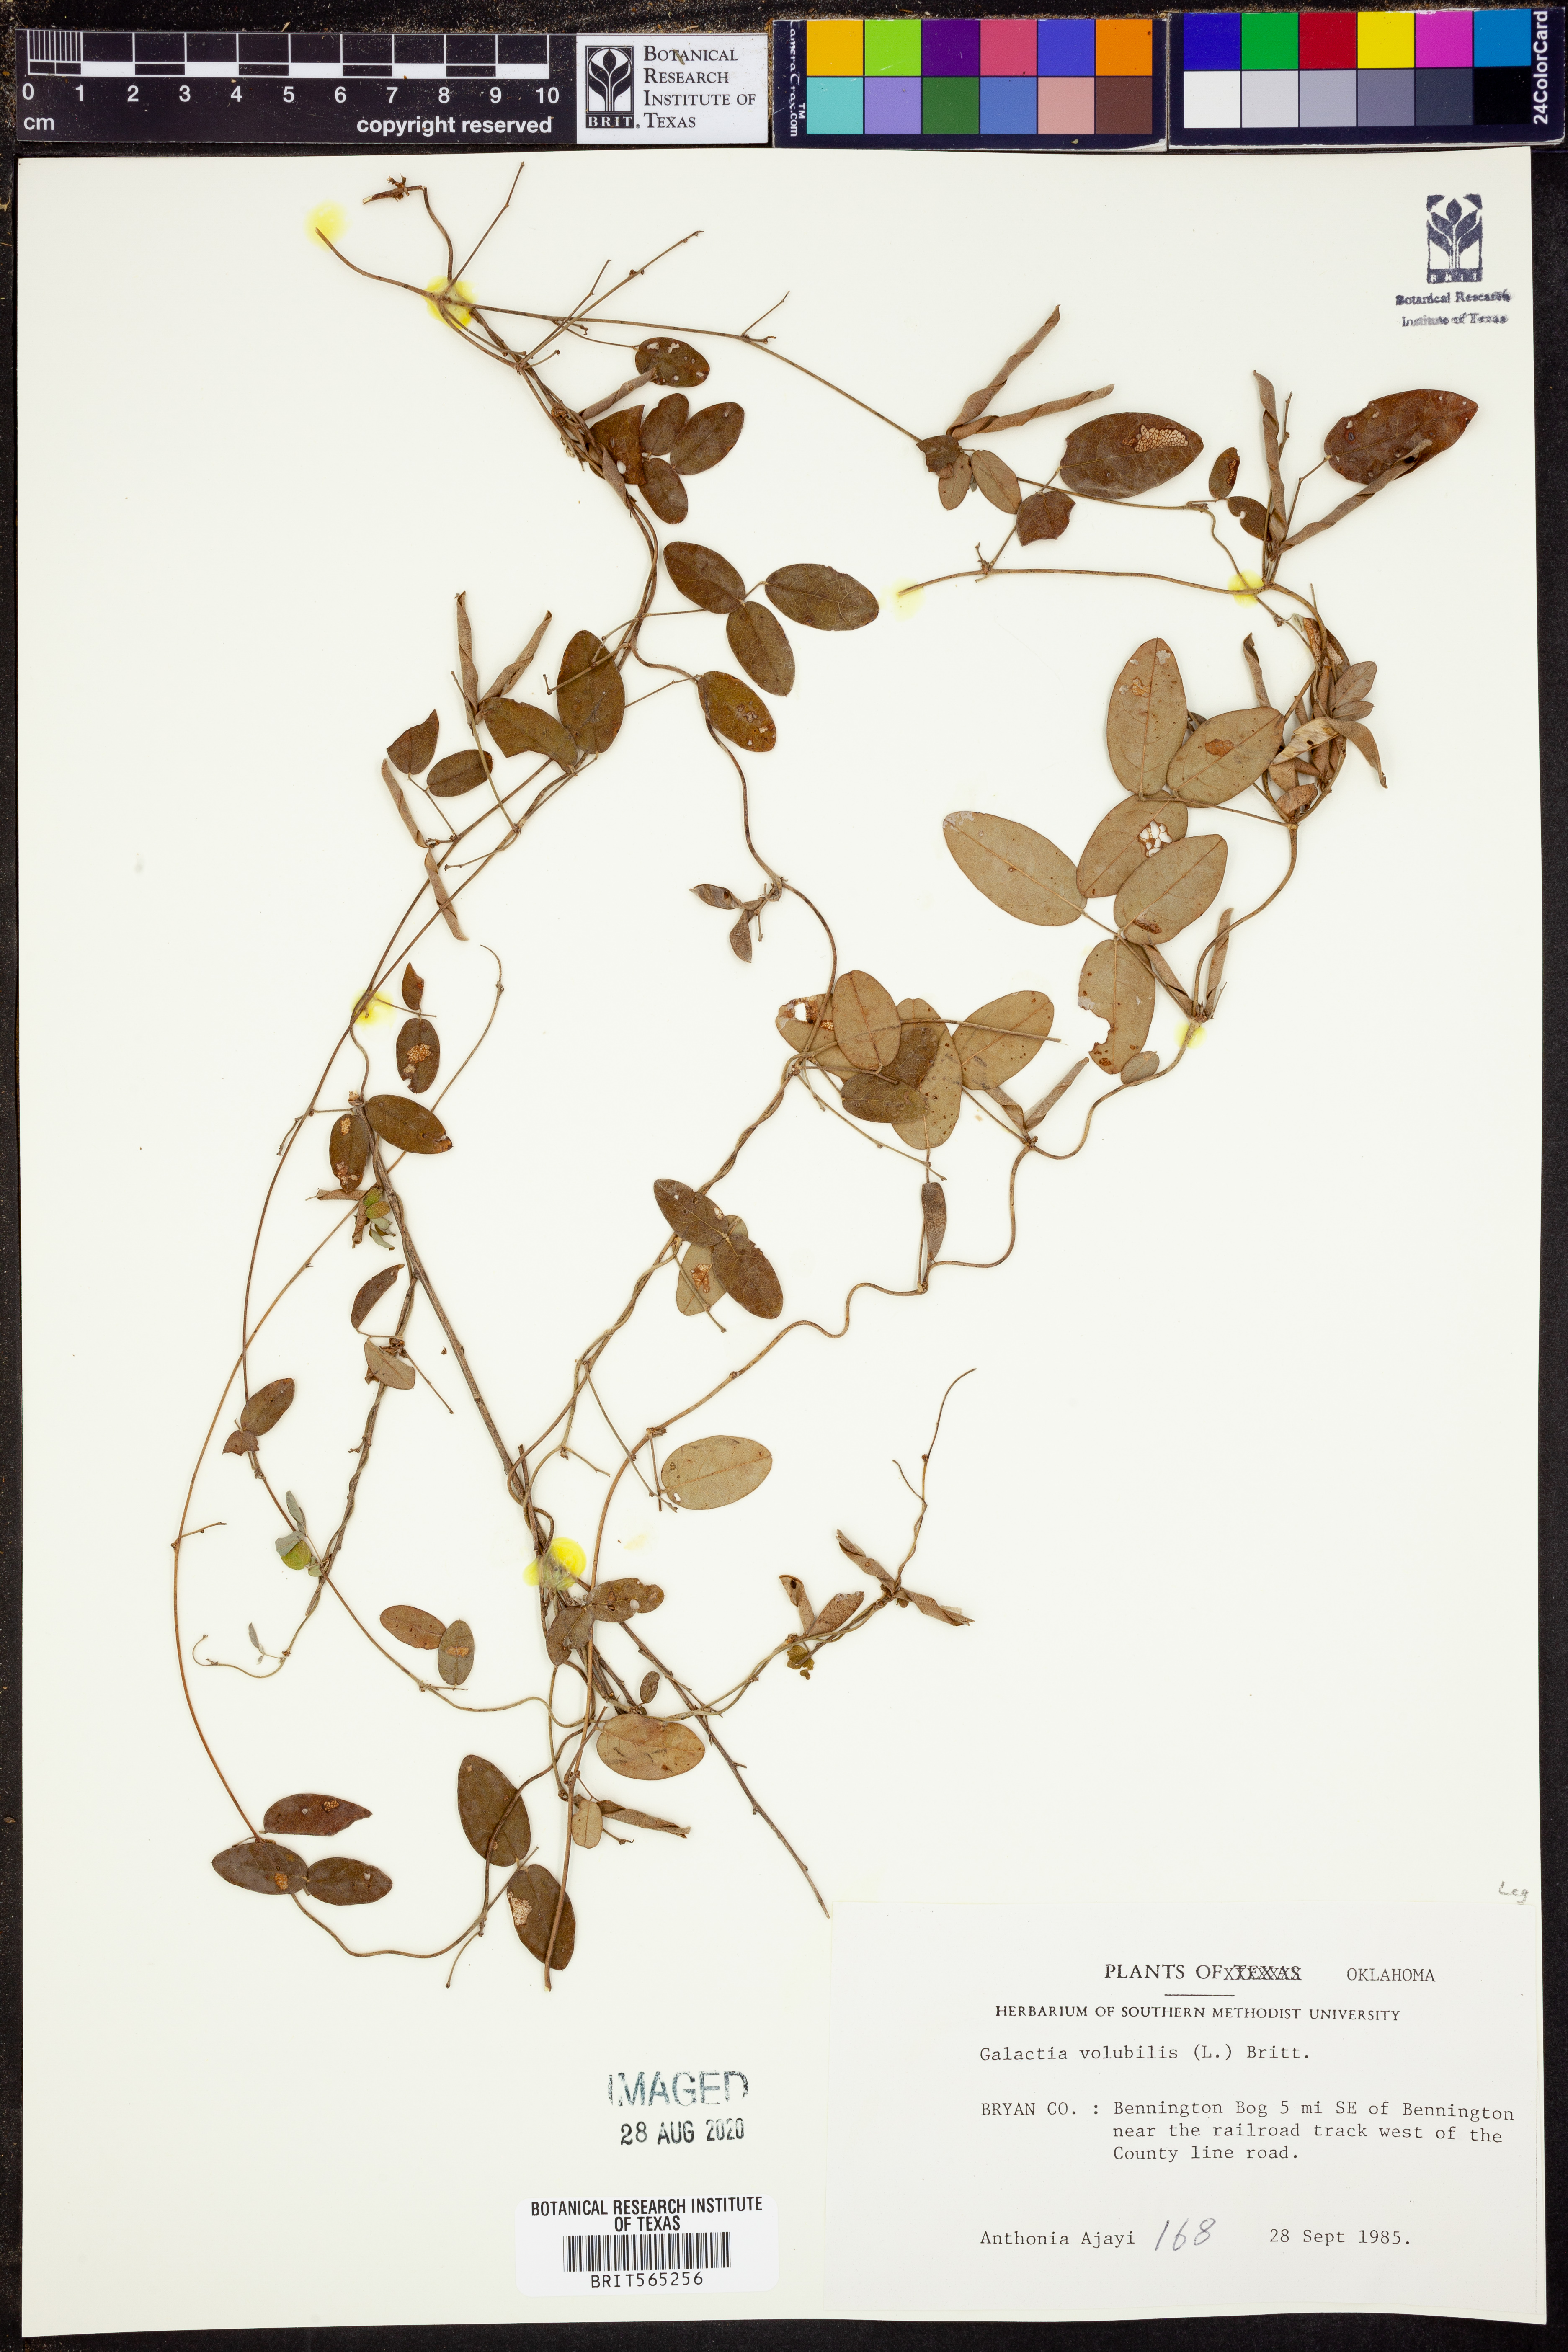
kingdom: Plantae
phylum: Tracheophyta
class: Magnoliopsida
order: Fabales
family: Fabaceae
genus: Galactia
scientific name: Galactia volubilis
